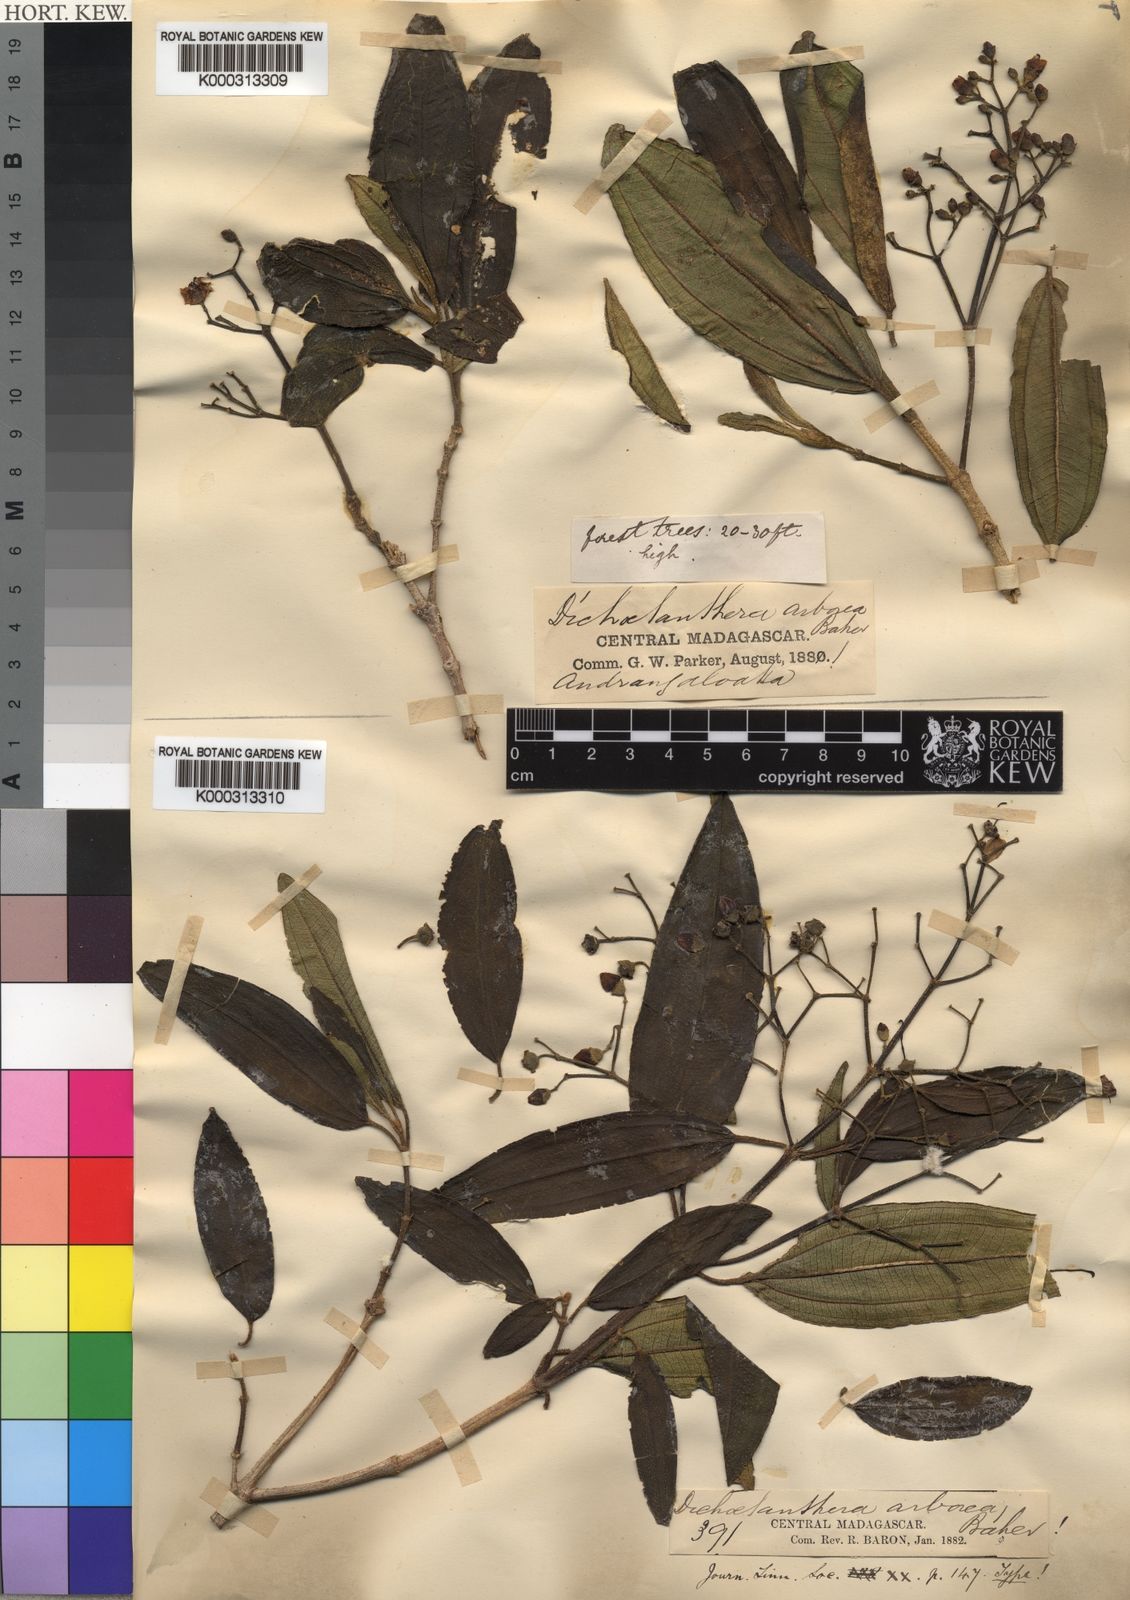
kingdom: Plantae
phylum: Tracheophyta
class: Magnoliopsida
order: Myrtales
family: Melastomataceae
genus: Dichaetanthera
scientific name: Dichaetanthera arborea
